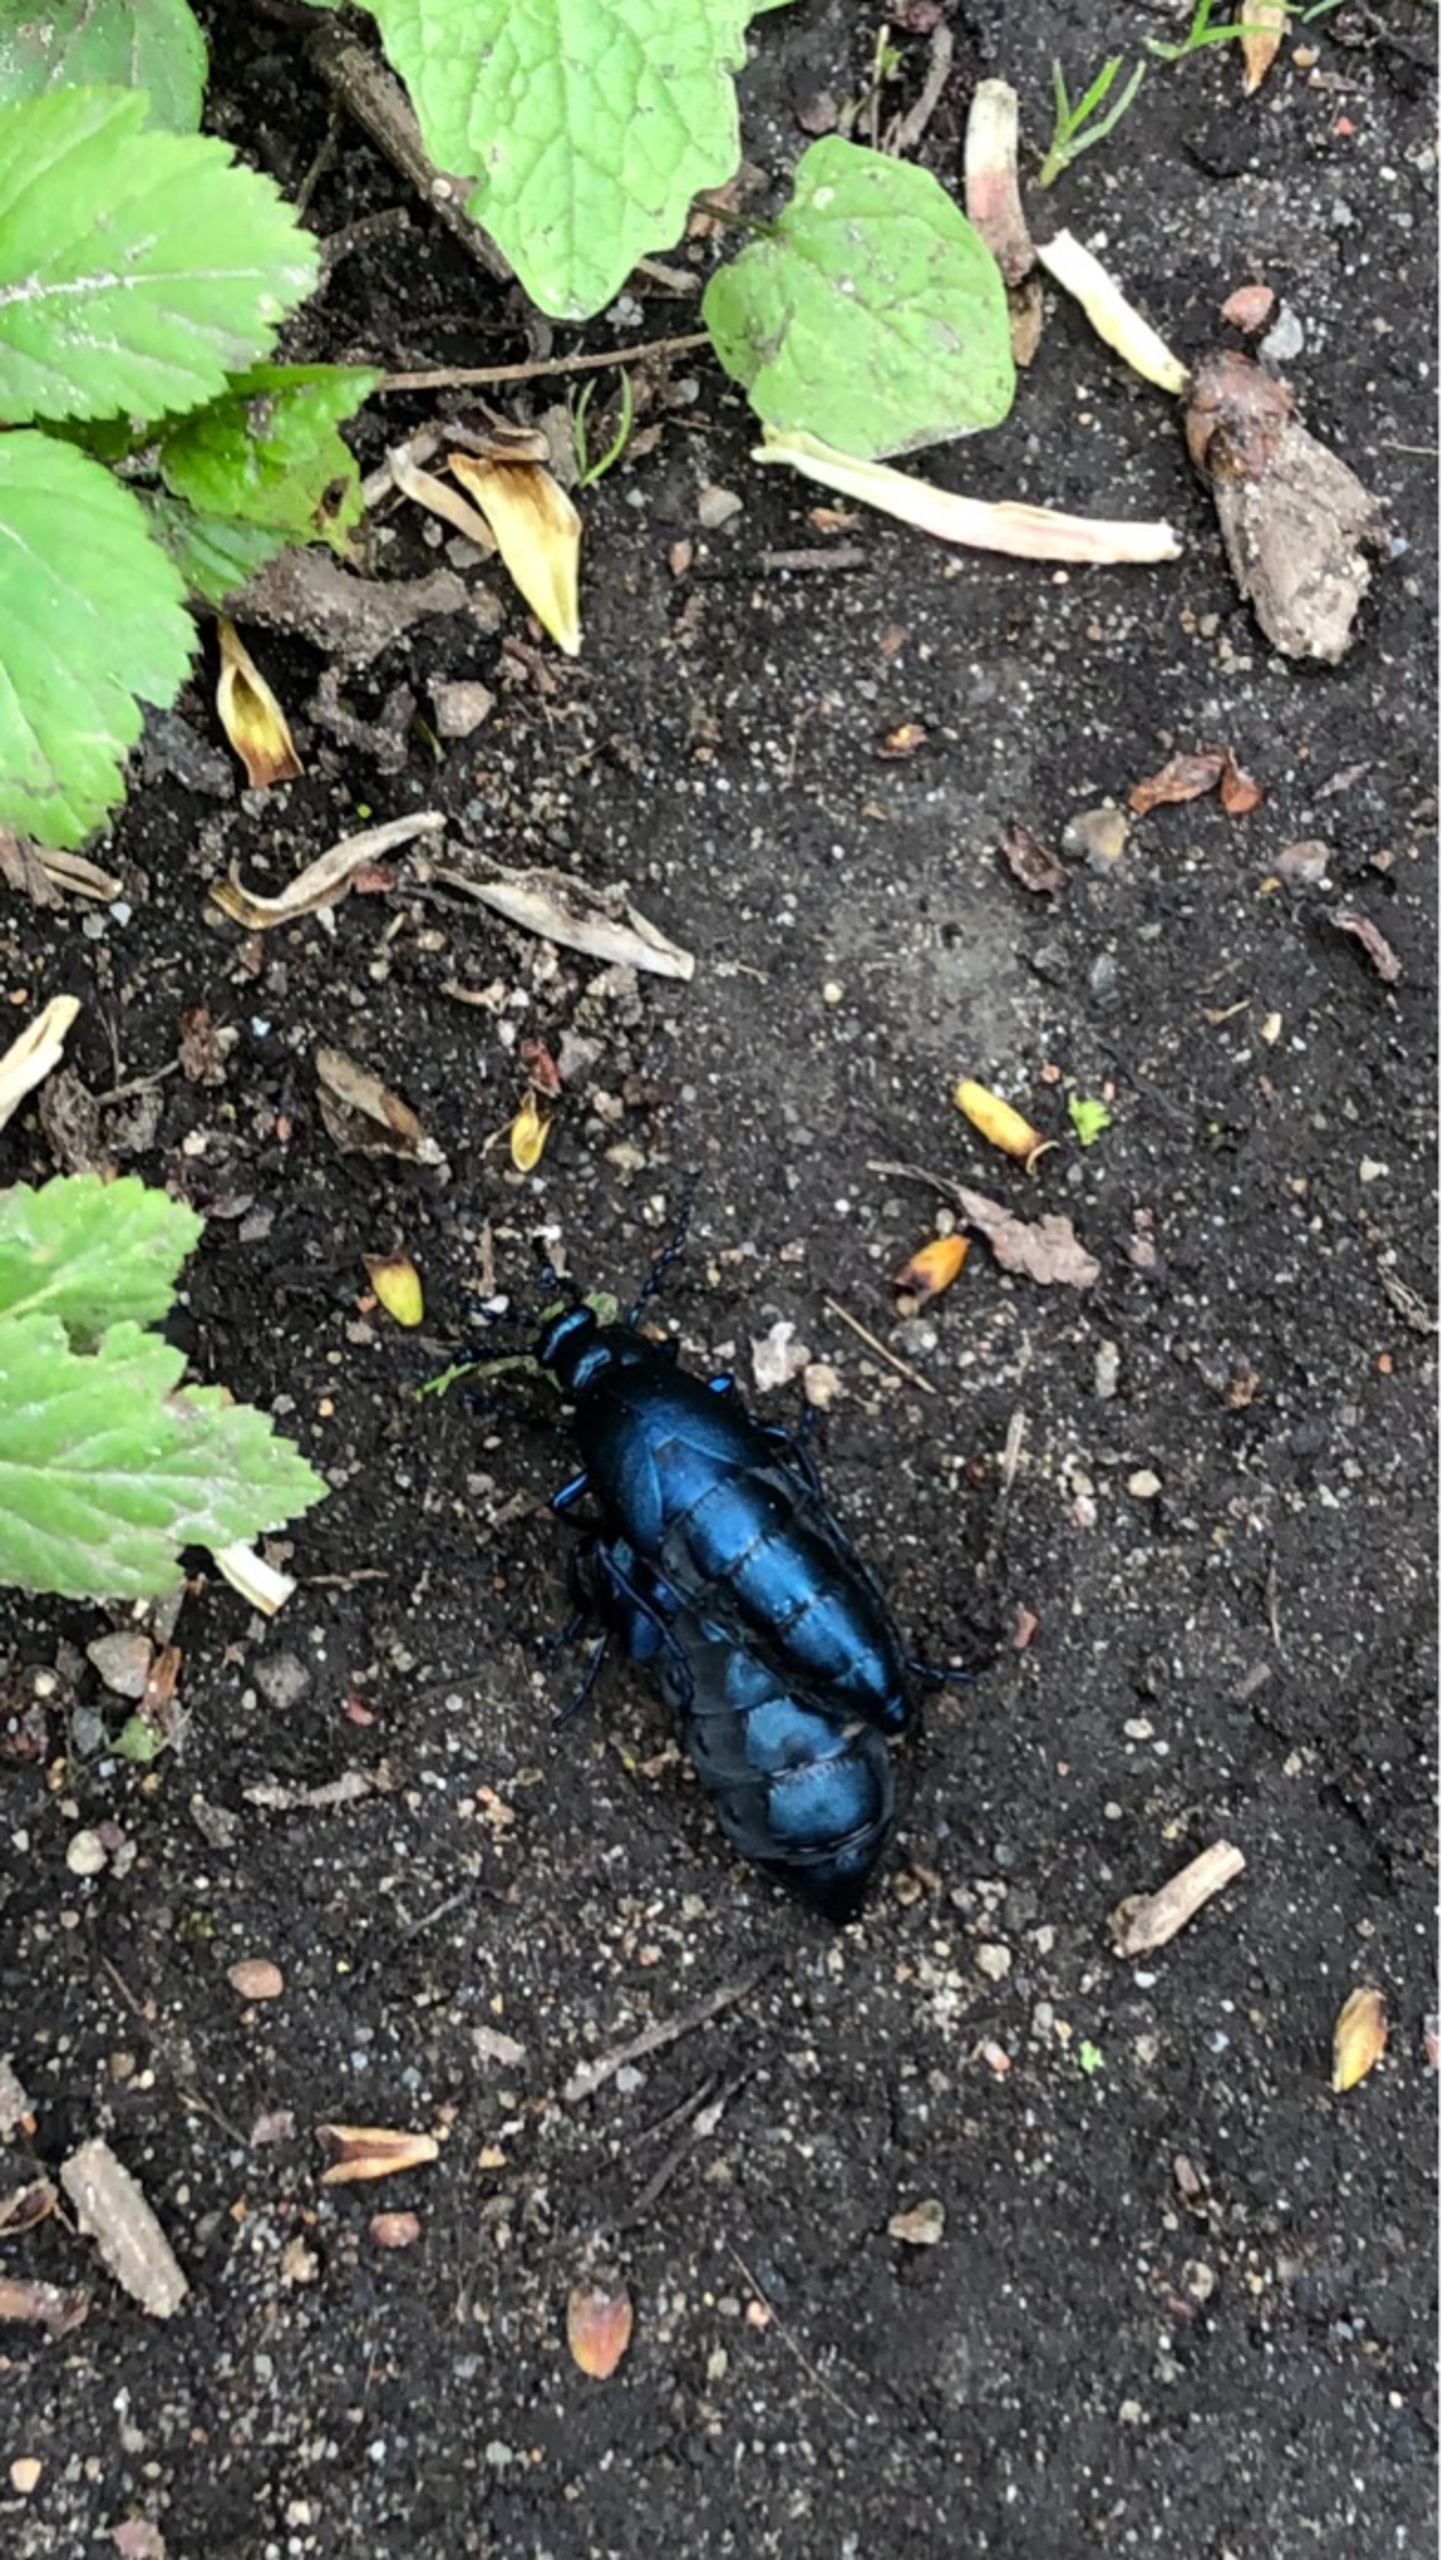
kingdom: Animalia
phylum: Arthropoda
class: Insecta
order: Coleoptera
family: Meloidae
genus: Meloe
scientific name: Meloe violaceus
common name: Blå oliebille
